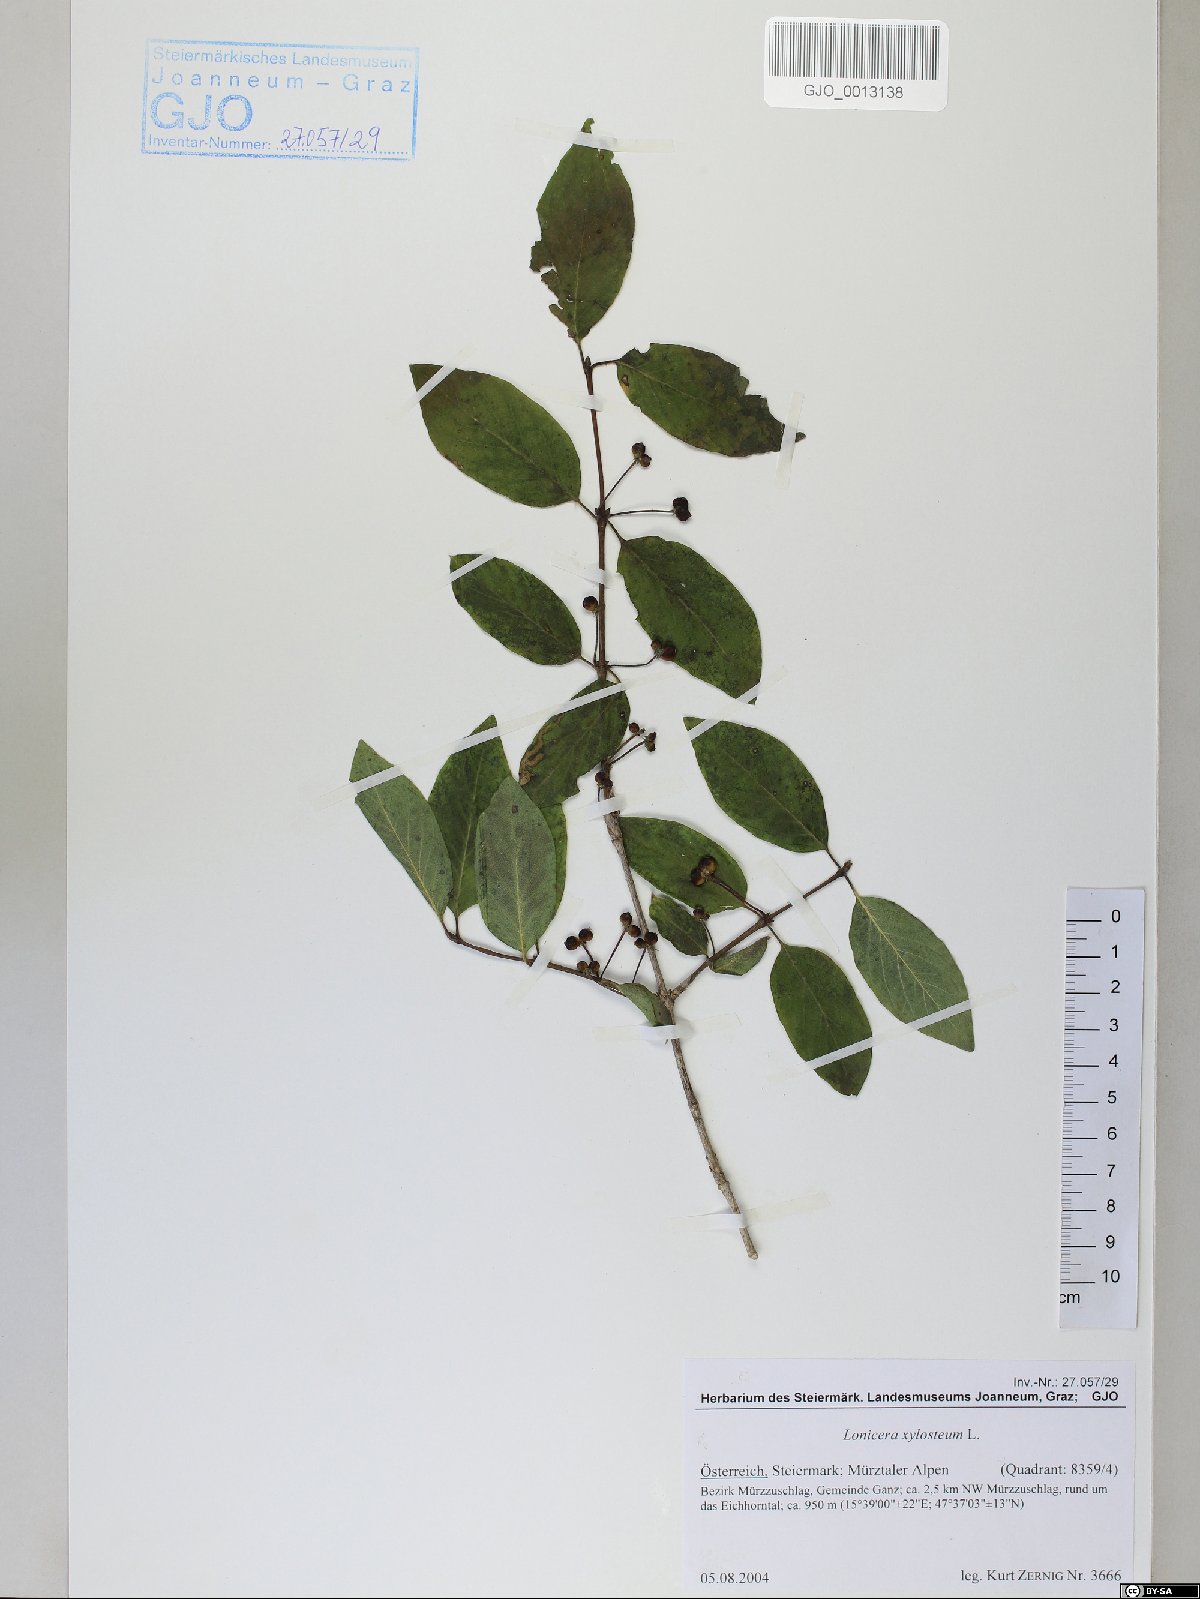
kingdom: Plantae
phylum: Tracheophyta
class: Magnoliopsida
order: Dipsacales
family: Caprifoliaceae
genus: Lonicera
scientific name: Lonicera xylosteum
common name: Fly honeysuckle
